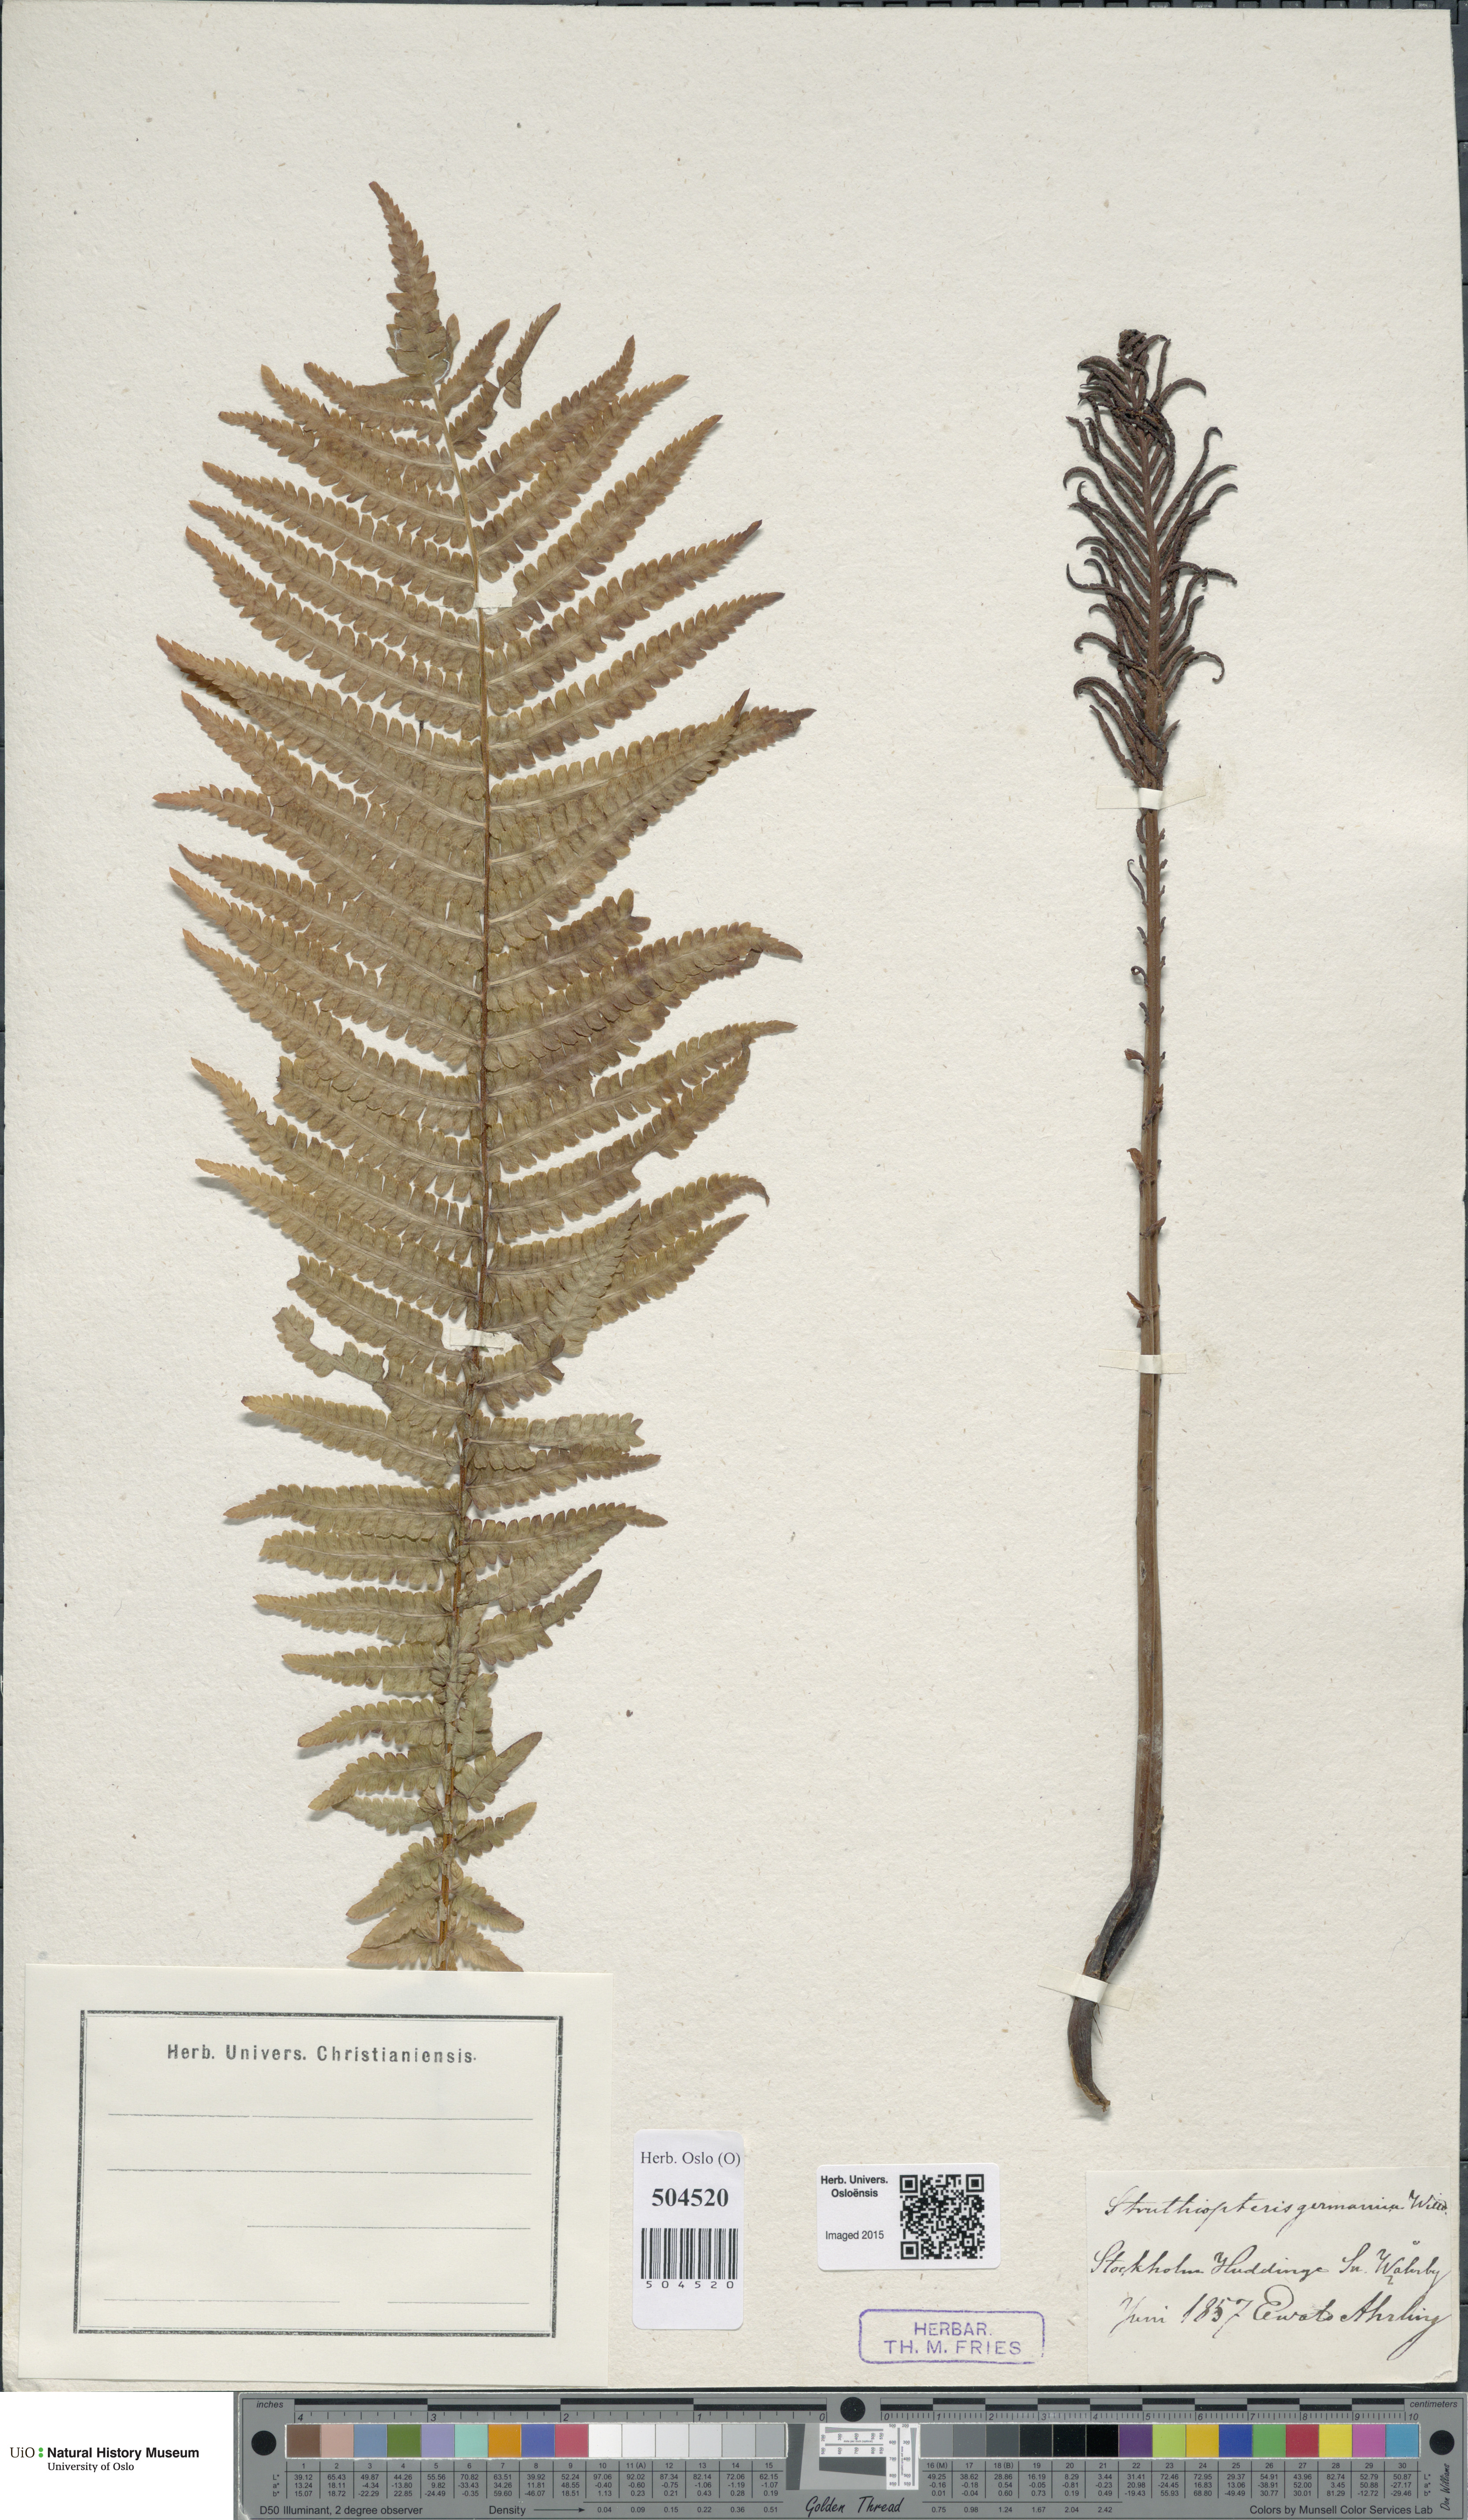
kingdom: Plantae
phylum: Tracheophyta
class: Polypodiopsida
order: Polypodiales
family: Onocleaceae
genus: Matteuccia
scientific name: Matteuccia struthiopteris
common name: Ostrich fern
